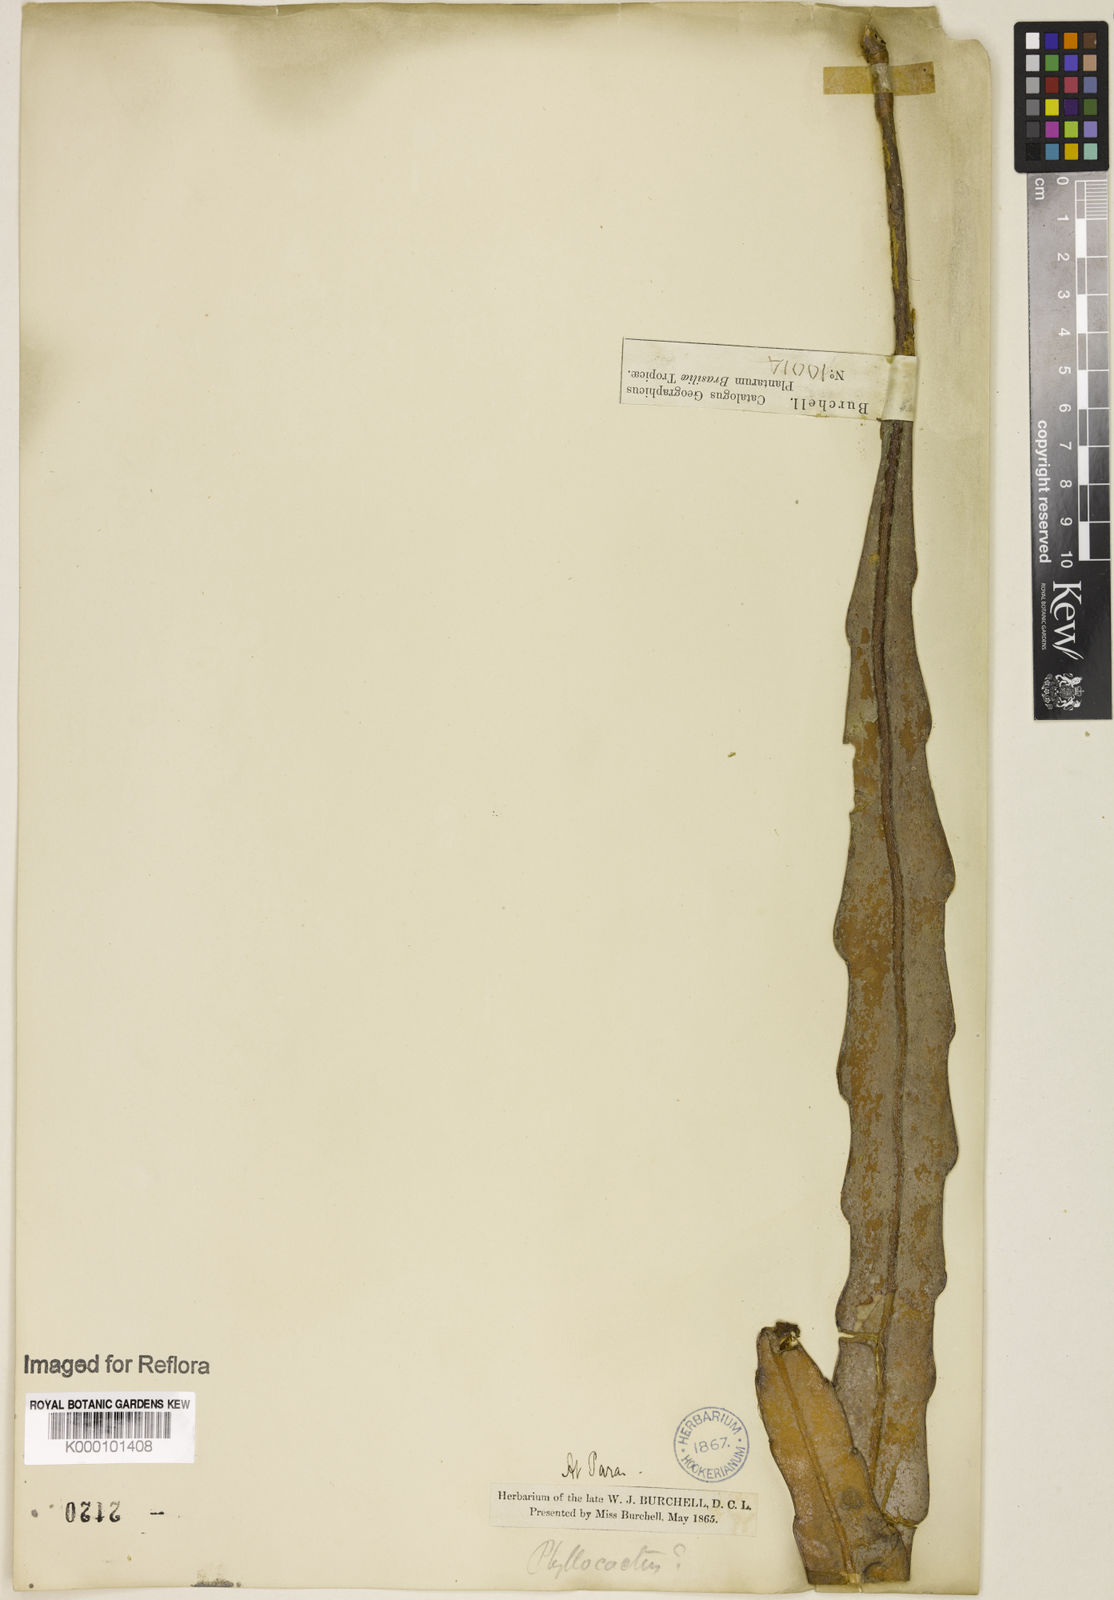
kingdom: Plantae
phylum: Tracheophyta
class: Magnoliopsida
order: Caryophyllales
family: Cactaceae
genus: Epiphyllum
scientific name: Epiphyllum phyllanthus
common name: Climbing cactus
